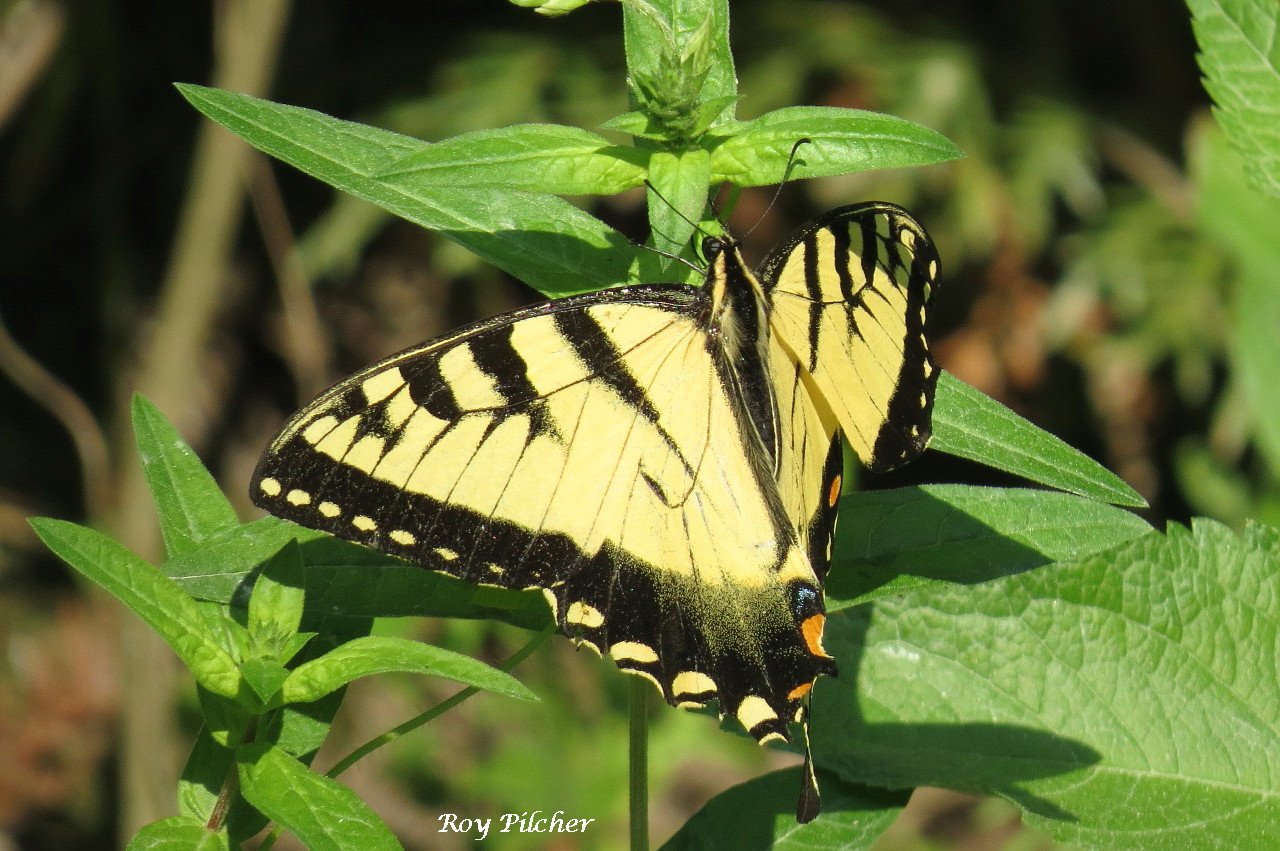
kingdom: Animalia
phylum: Arthropoda
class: Insecta
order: Lepidoptera
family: Papilionidae
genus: Pterourus
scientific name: Pterourus
